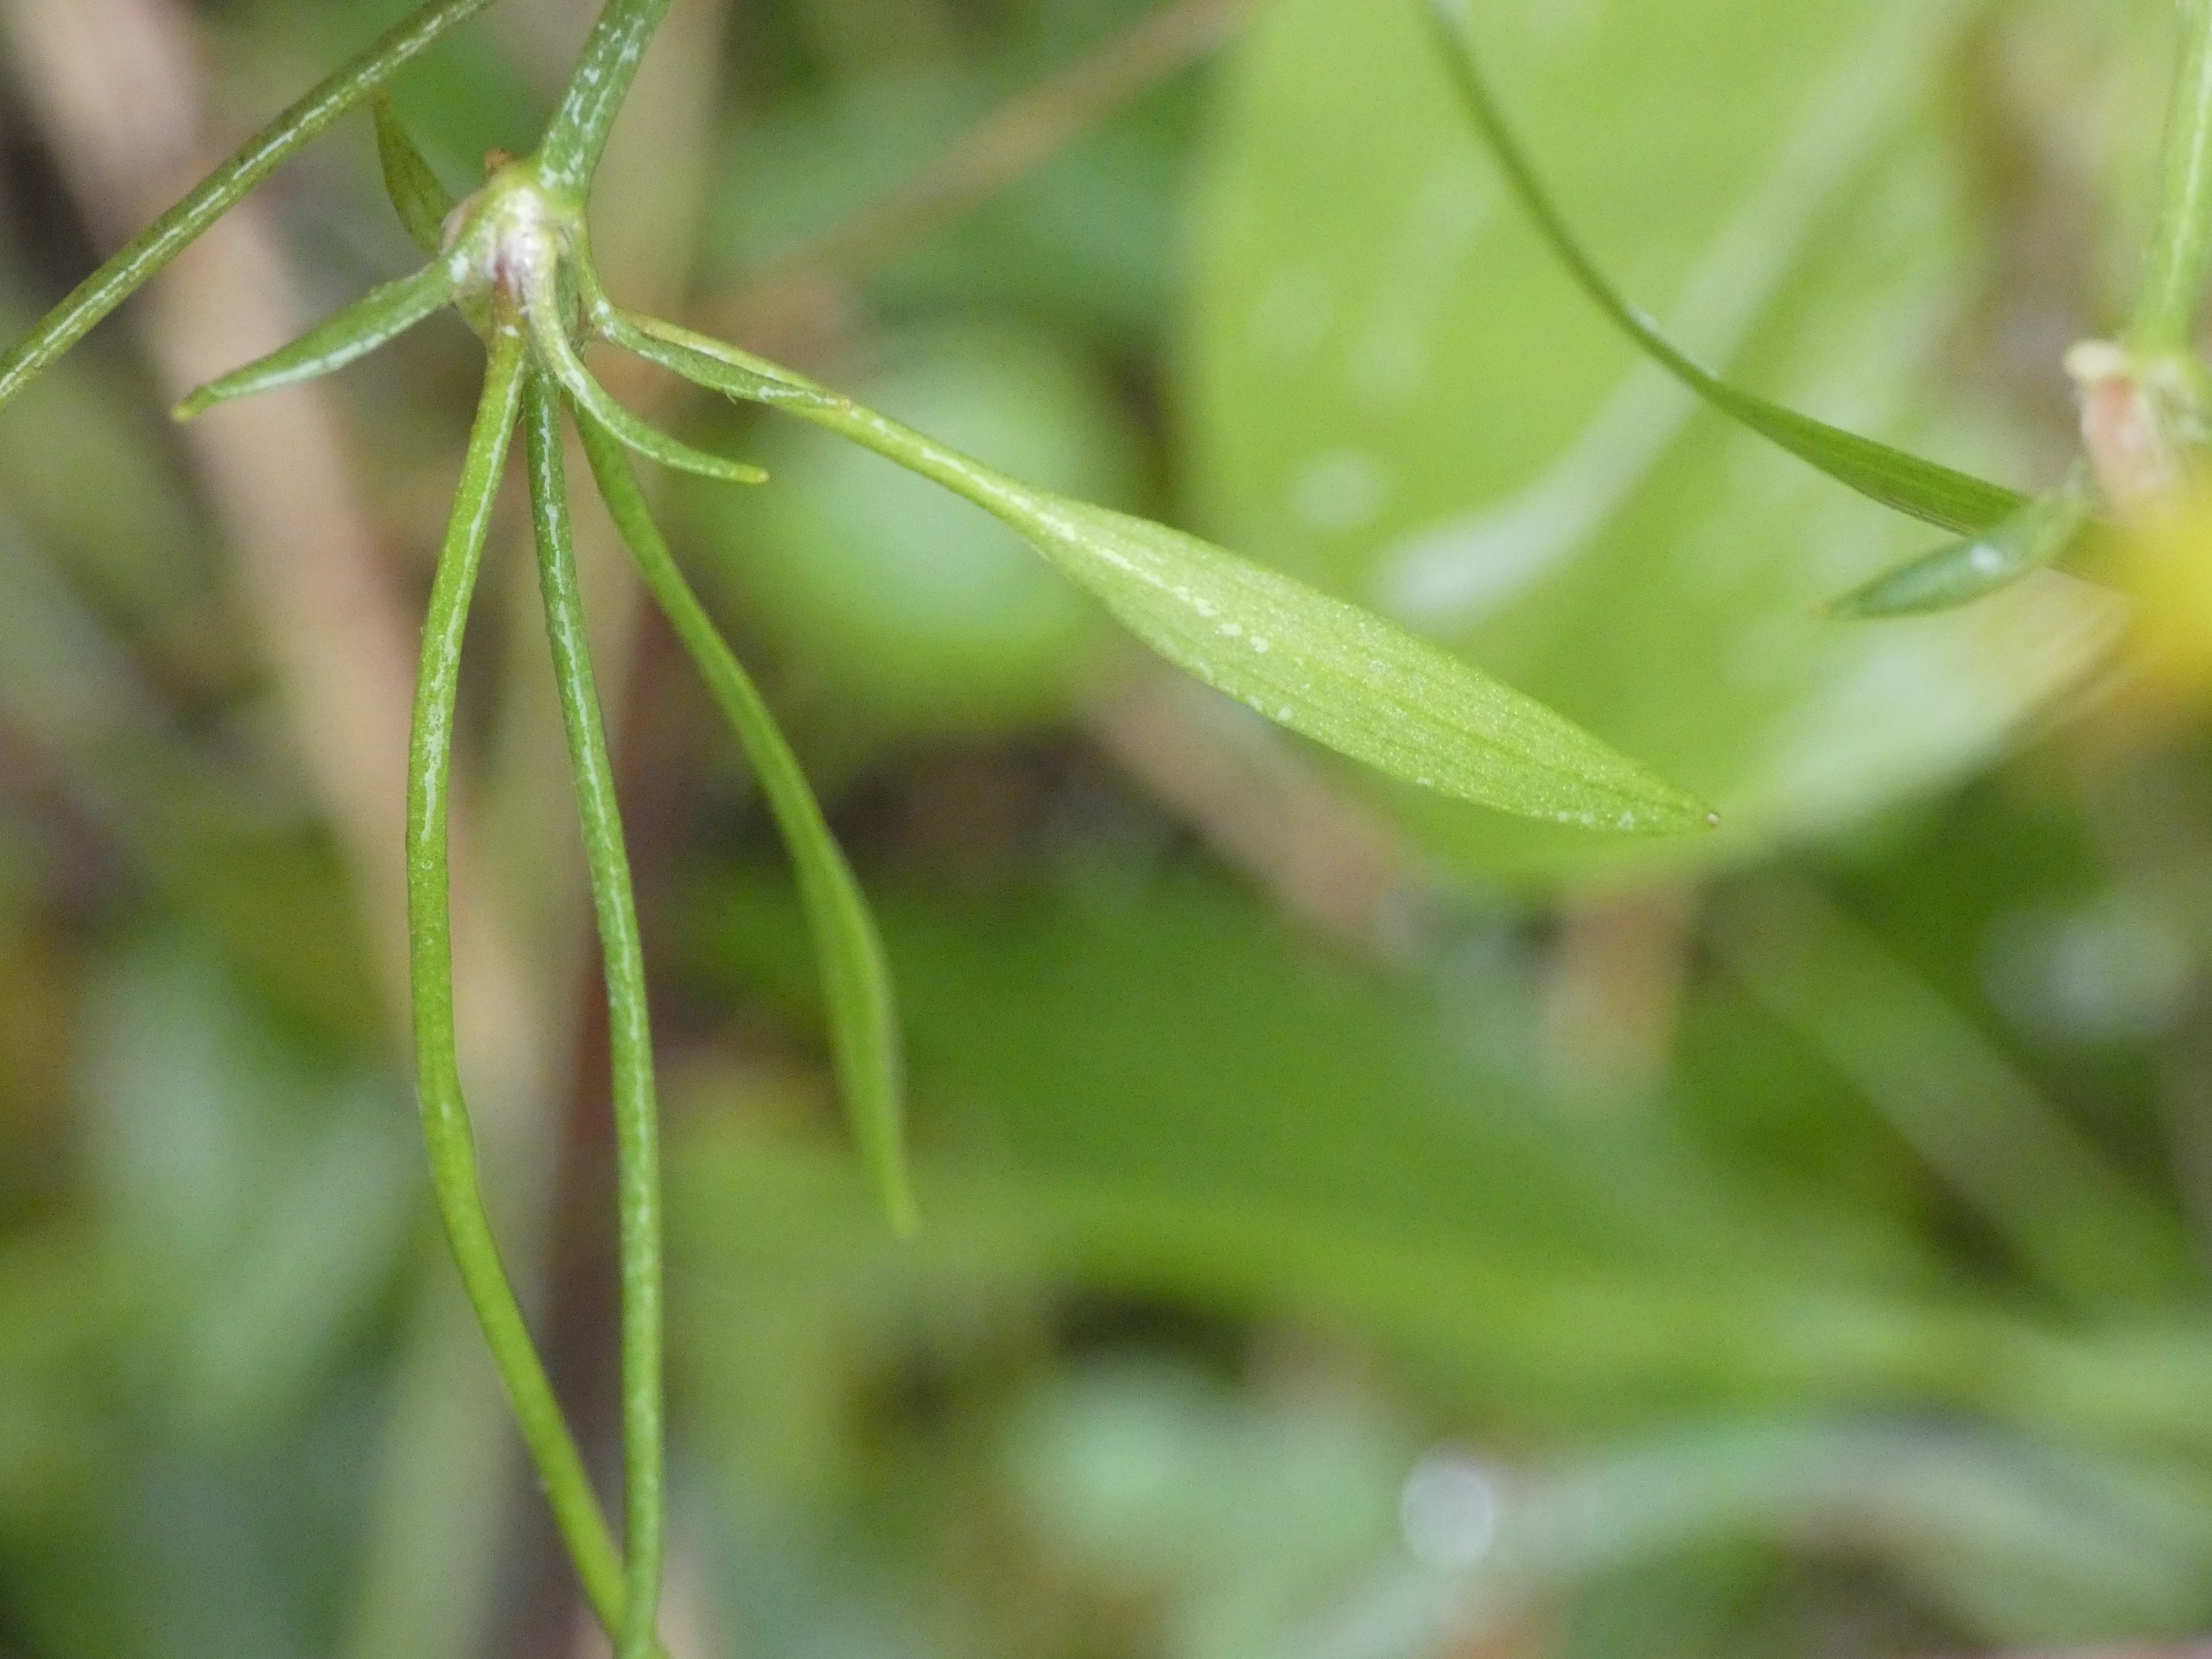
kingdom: Plantae
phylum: Tracheophyta
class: Magnoliopsida
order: Ranunculales
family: Ranunculaceae
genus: Ranunculus
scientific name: Ranunculus flammula
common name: Kær-ranunkel
